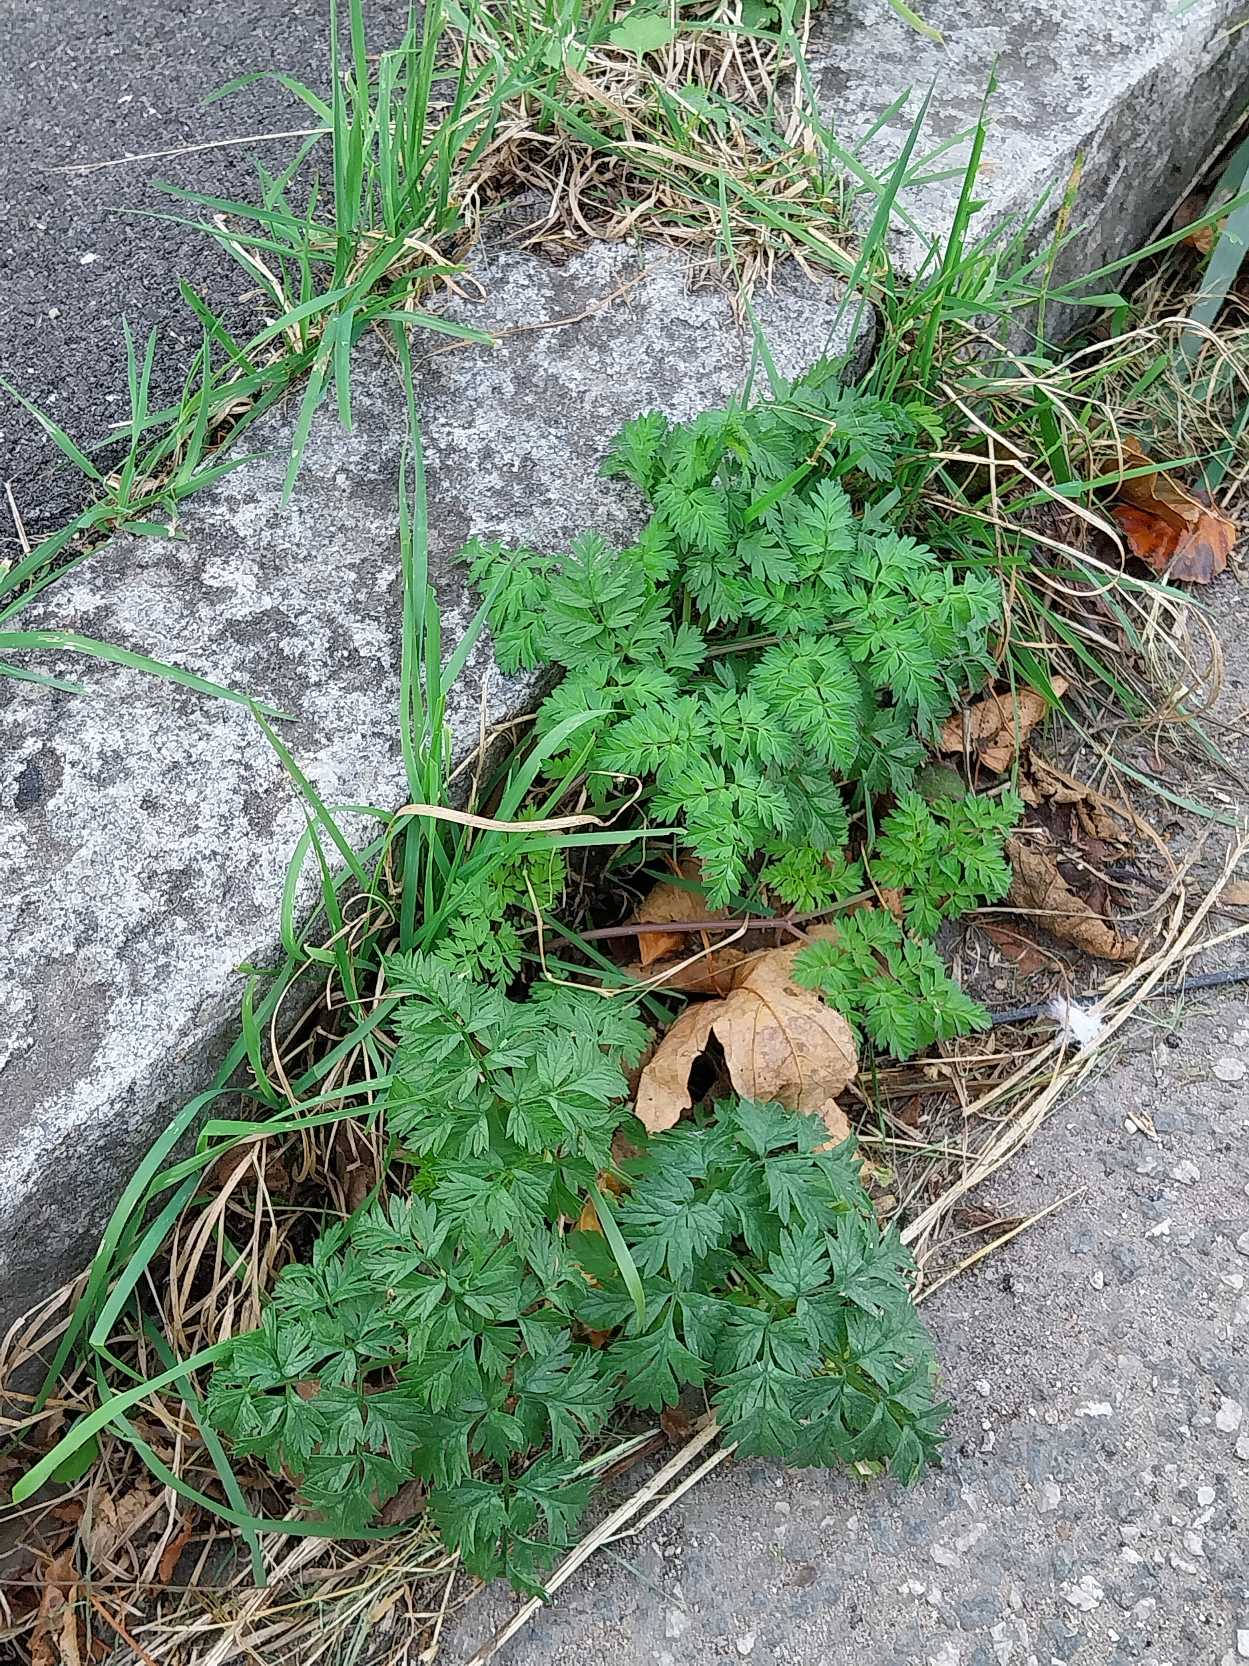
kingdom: Plantae
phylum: Tracheophyta
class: Magnoliopsida
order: Apiales
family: Apiaceae
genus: Anthriscus
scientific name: Anthriscus sylvestris
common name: Vild kørvel
